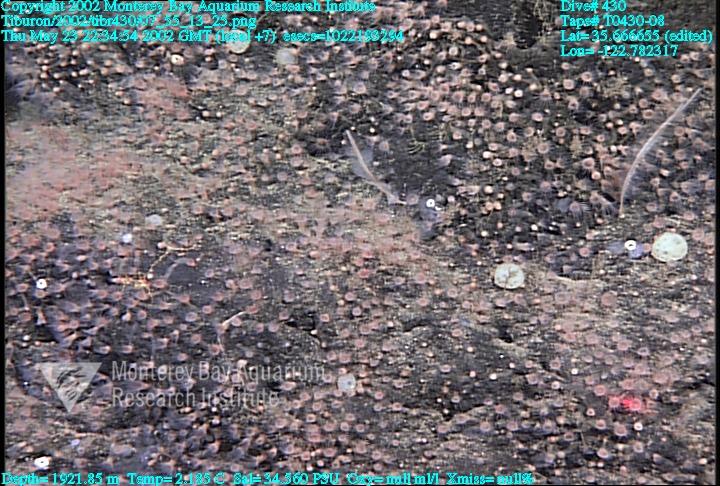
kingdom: Animalia
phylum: Porifera
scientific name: Porifera
